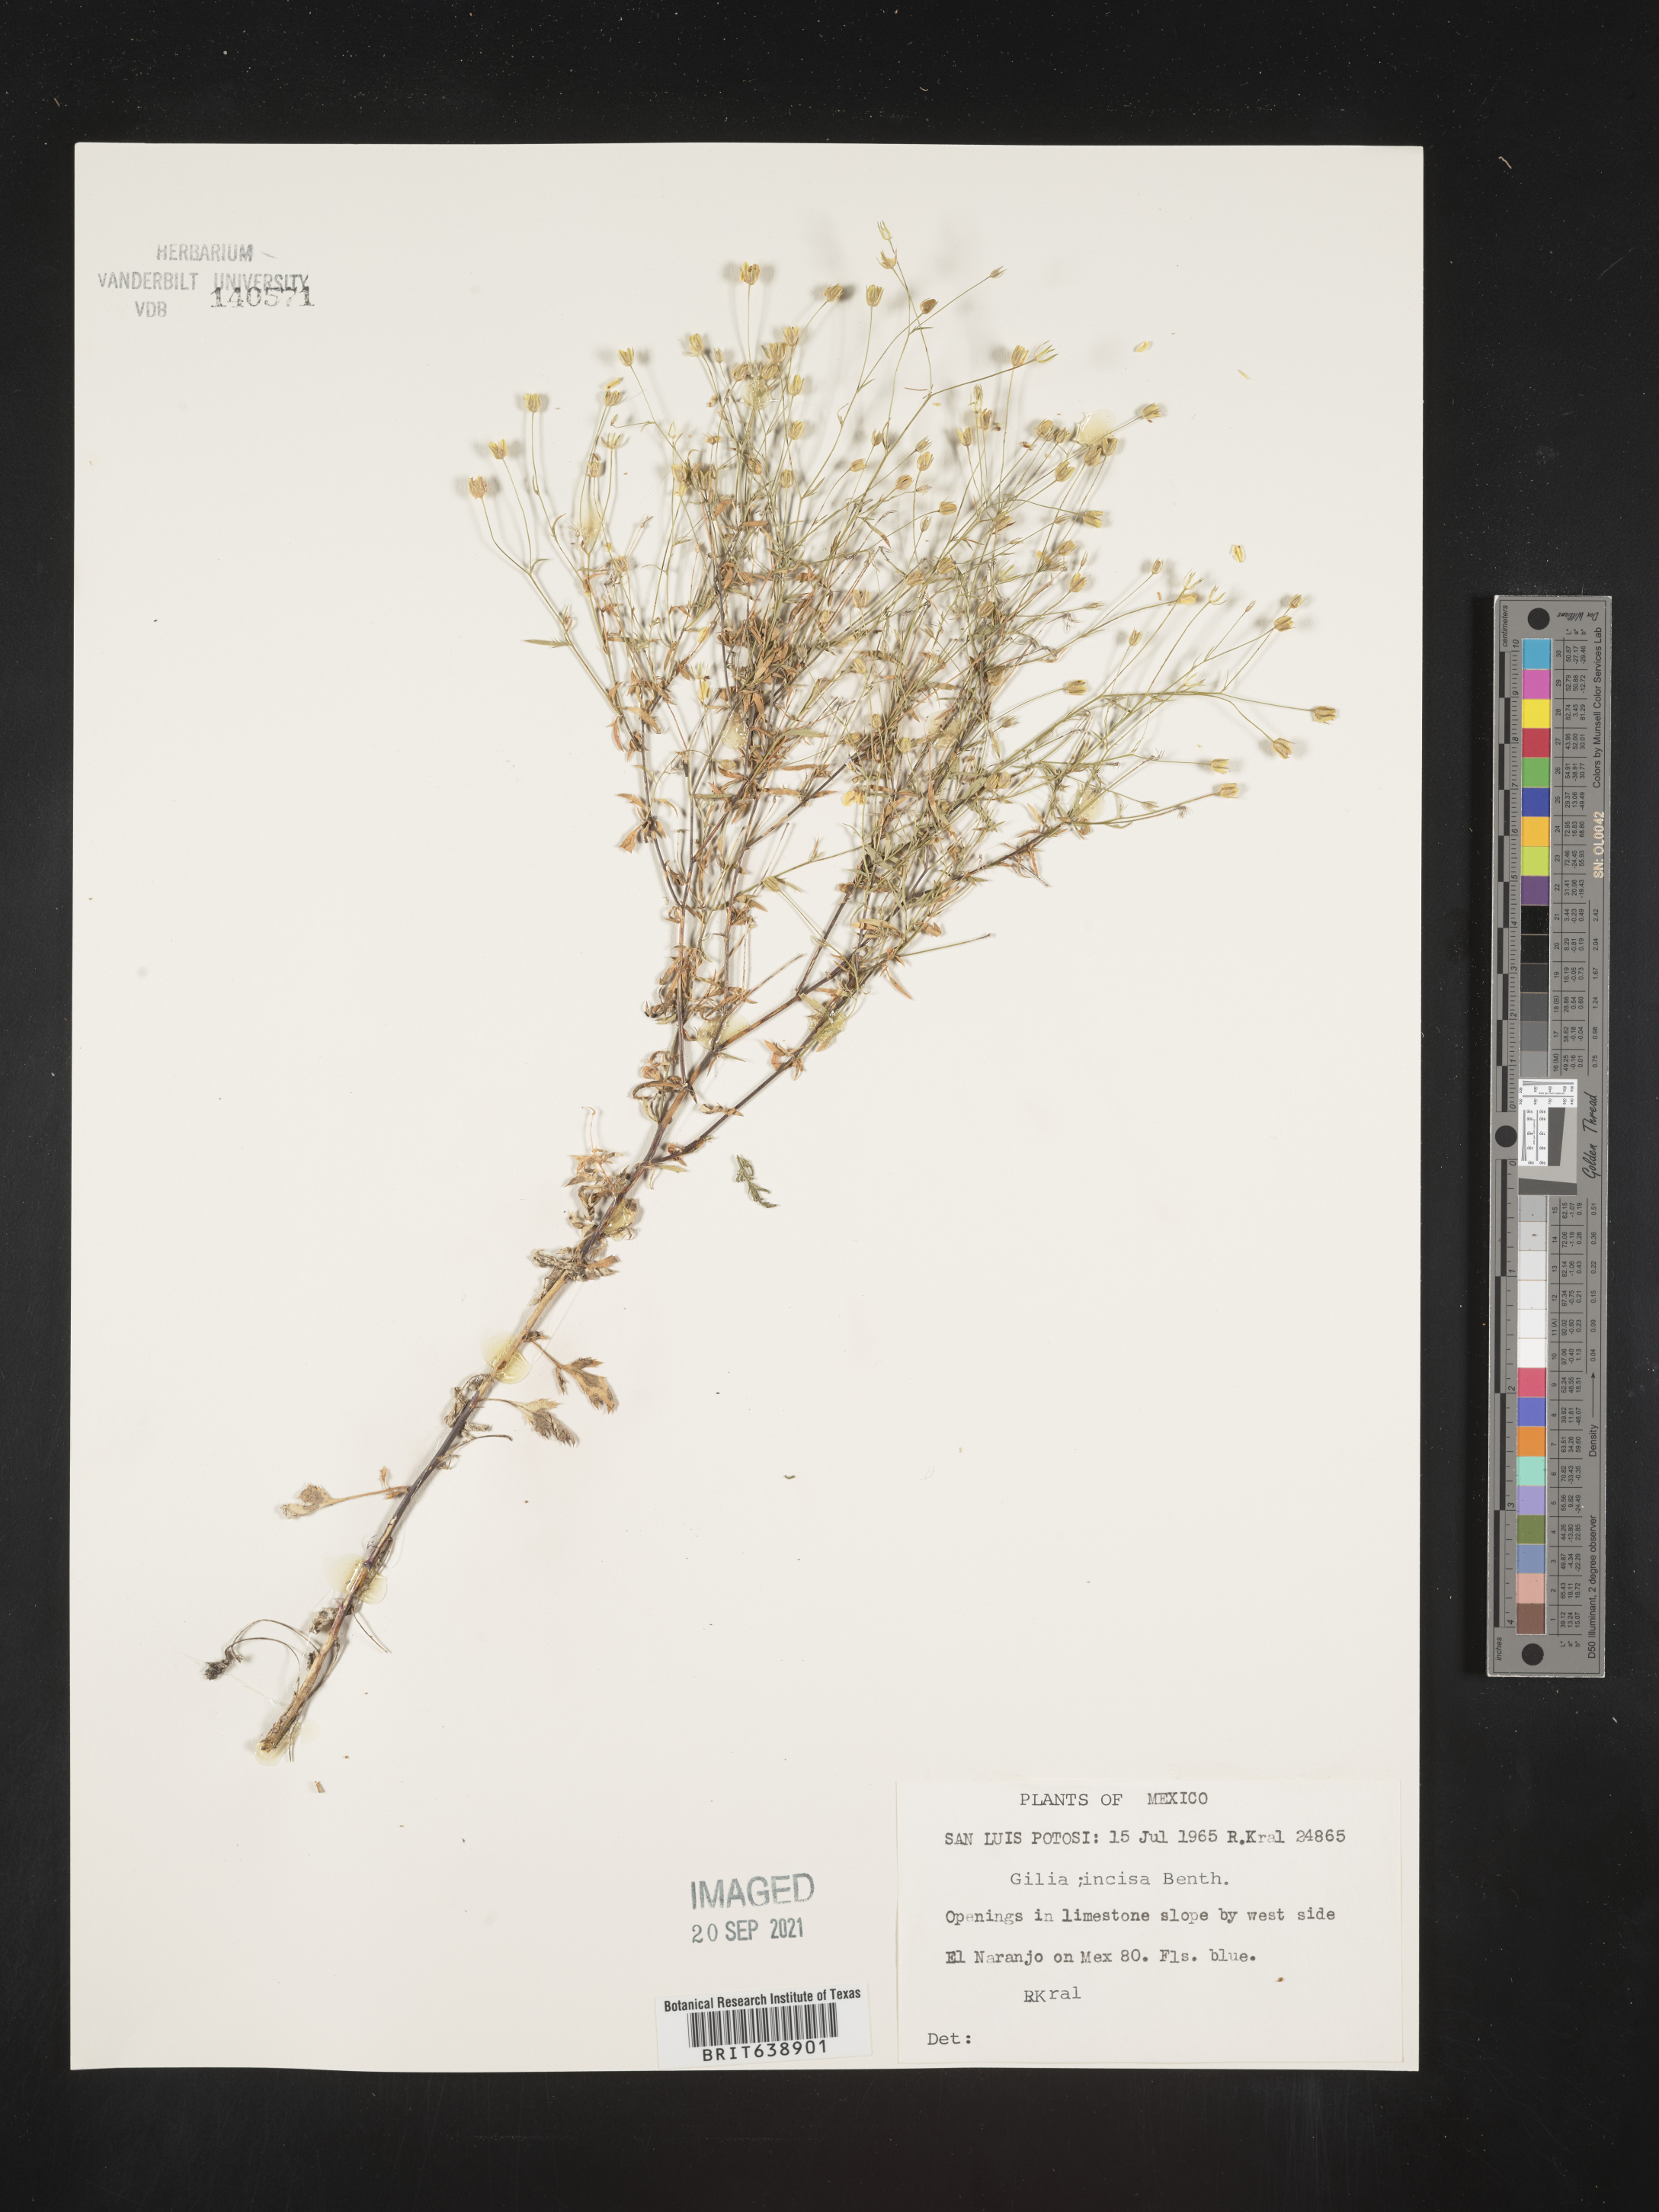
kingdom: Plantae
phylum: Tracheophyta
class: Magnoliopsida
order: Ericales
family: Polemoniaceae
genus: Gilia
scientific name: Gilia
